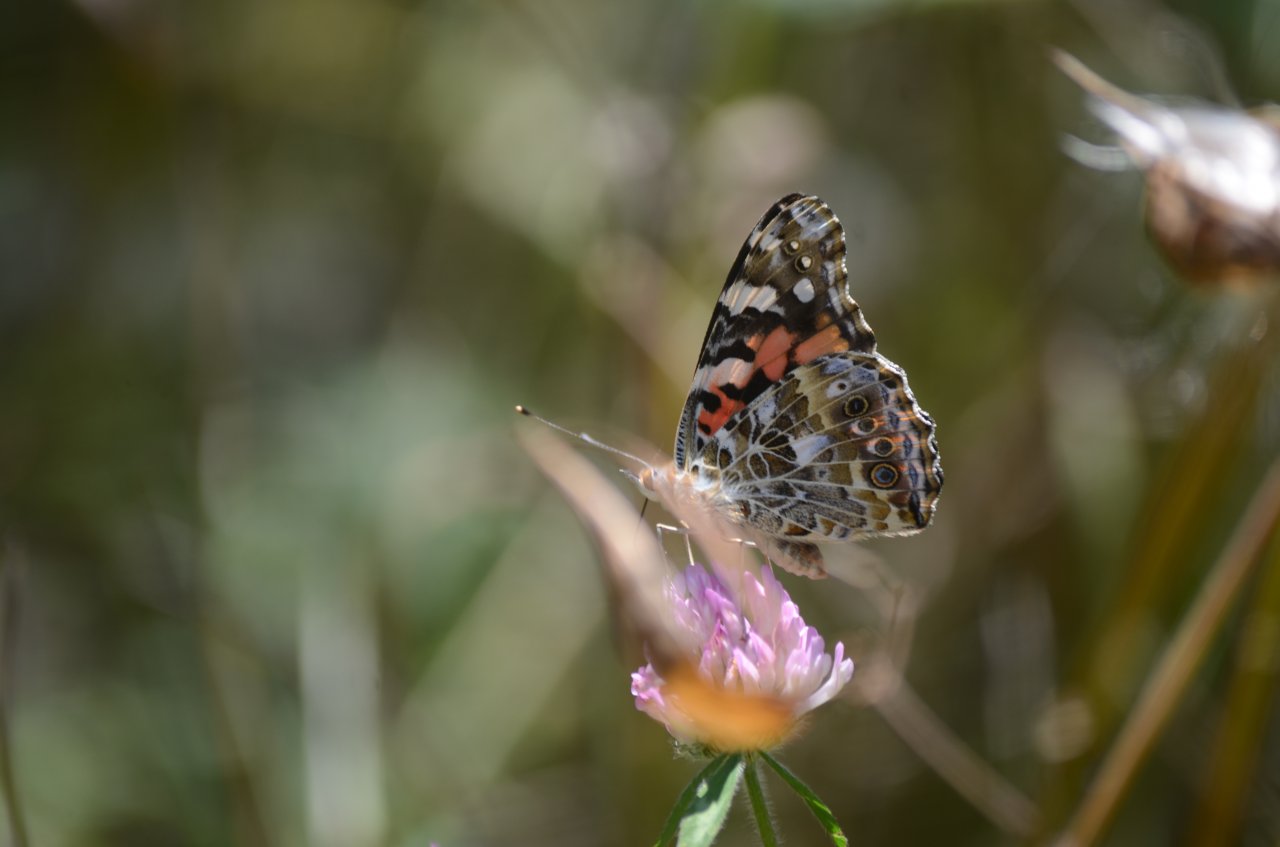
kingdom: Animalia
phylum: Arthropoda
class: Insecta
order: Lepidoptera
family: Nymphalidae
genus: Vanessa
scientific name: Vanessa cardui
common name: Painted Lady
